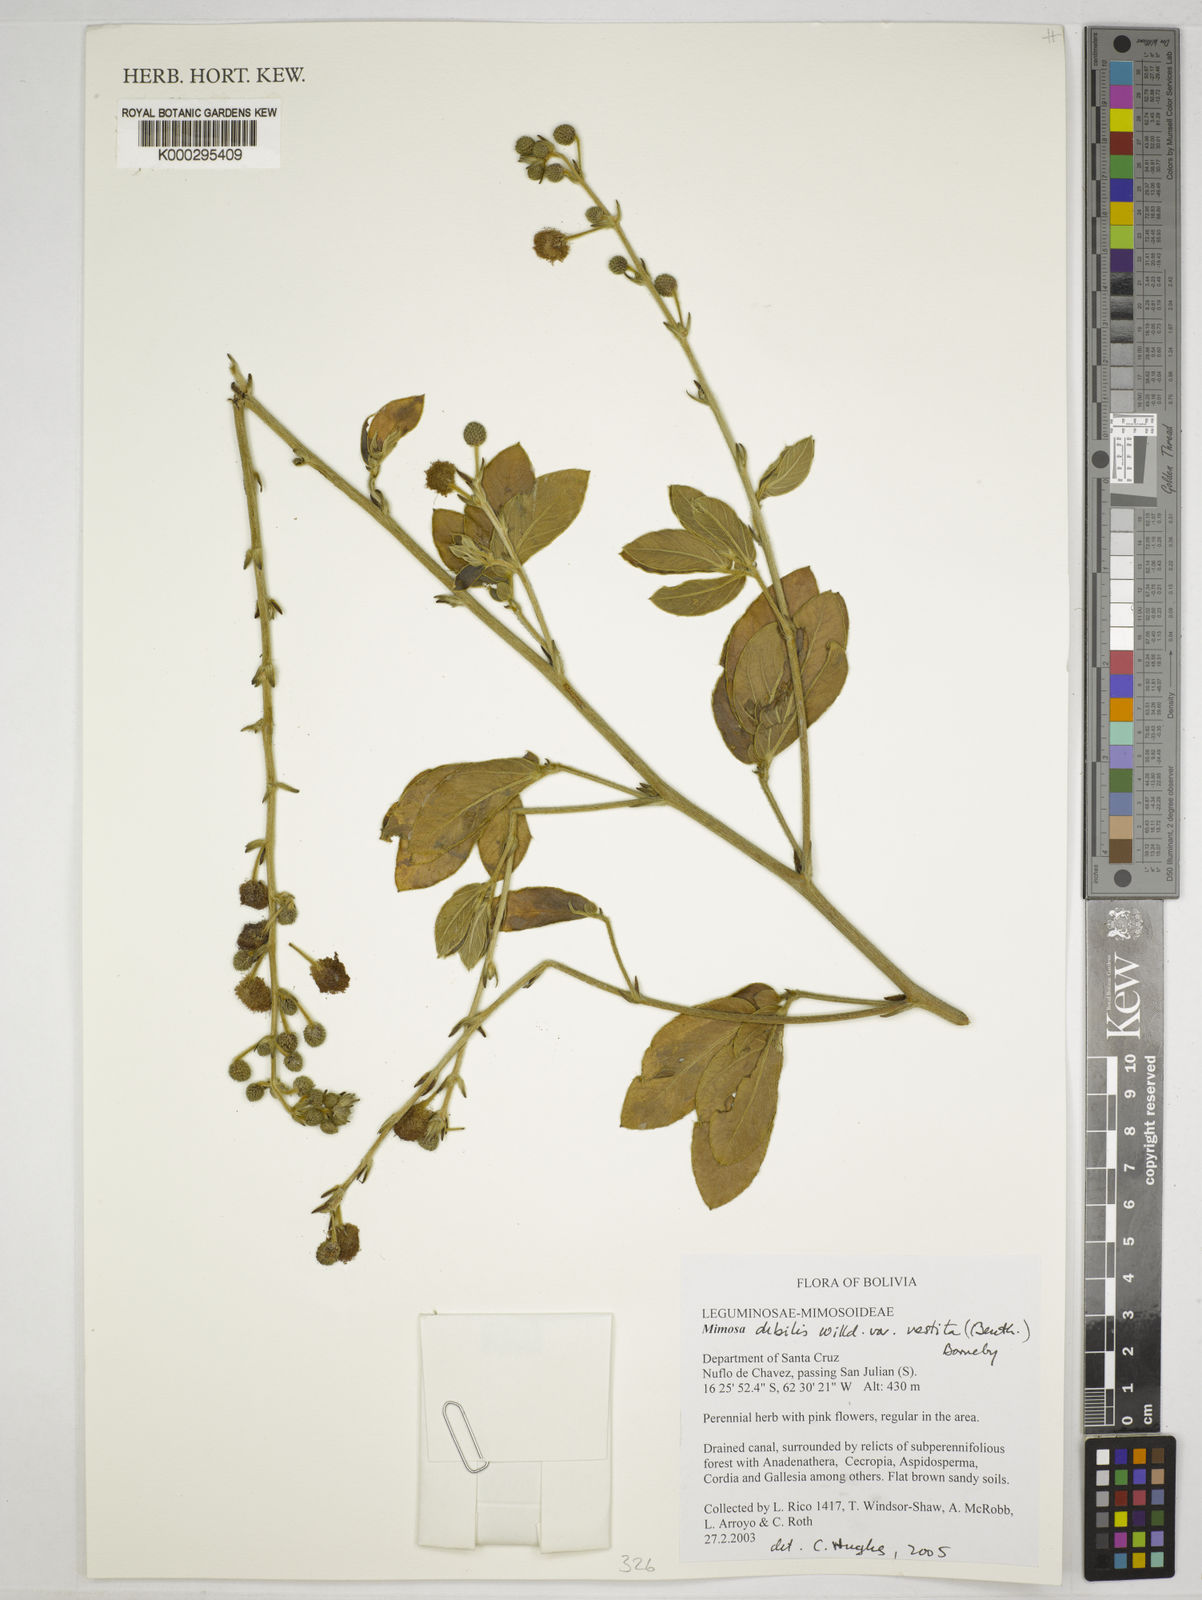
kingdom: Plantae
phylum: Tracheophyta
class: Magnoliopsida
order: Fabales
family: Fabaceae
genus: Mimosa
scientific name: Mimosa debilis
